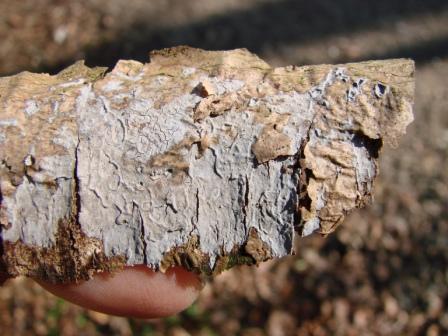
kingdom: Fungi
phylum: Basidiomycota
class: Agaricomycetes
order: Russulales
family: Peniophoraceae
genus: Peniophora
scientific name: Peniophora cinerea
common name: grå voksskind
